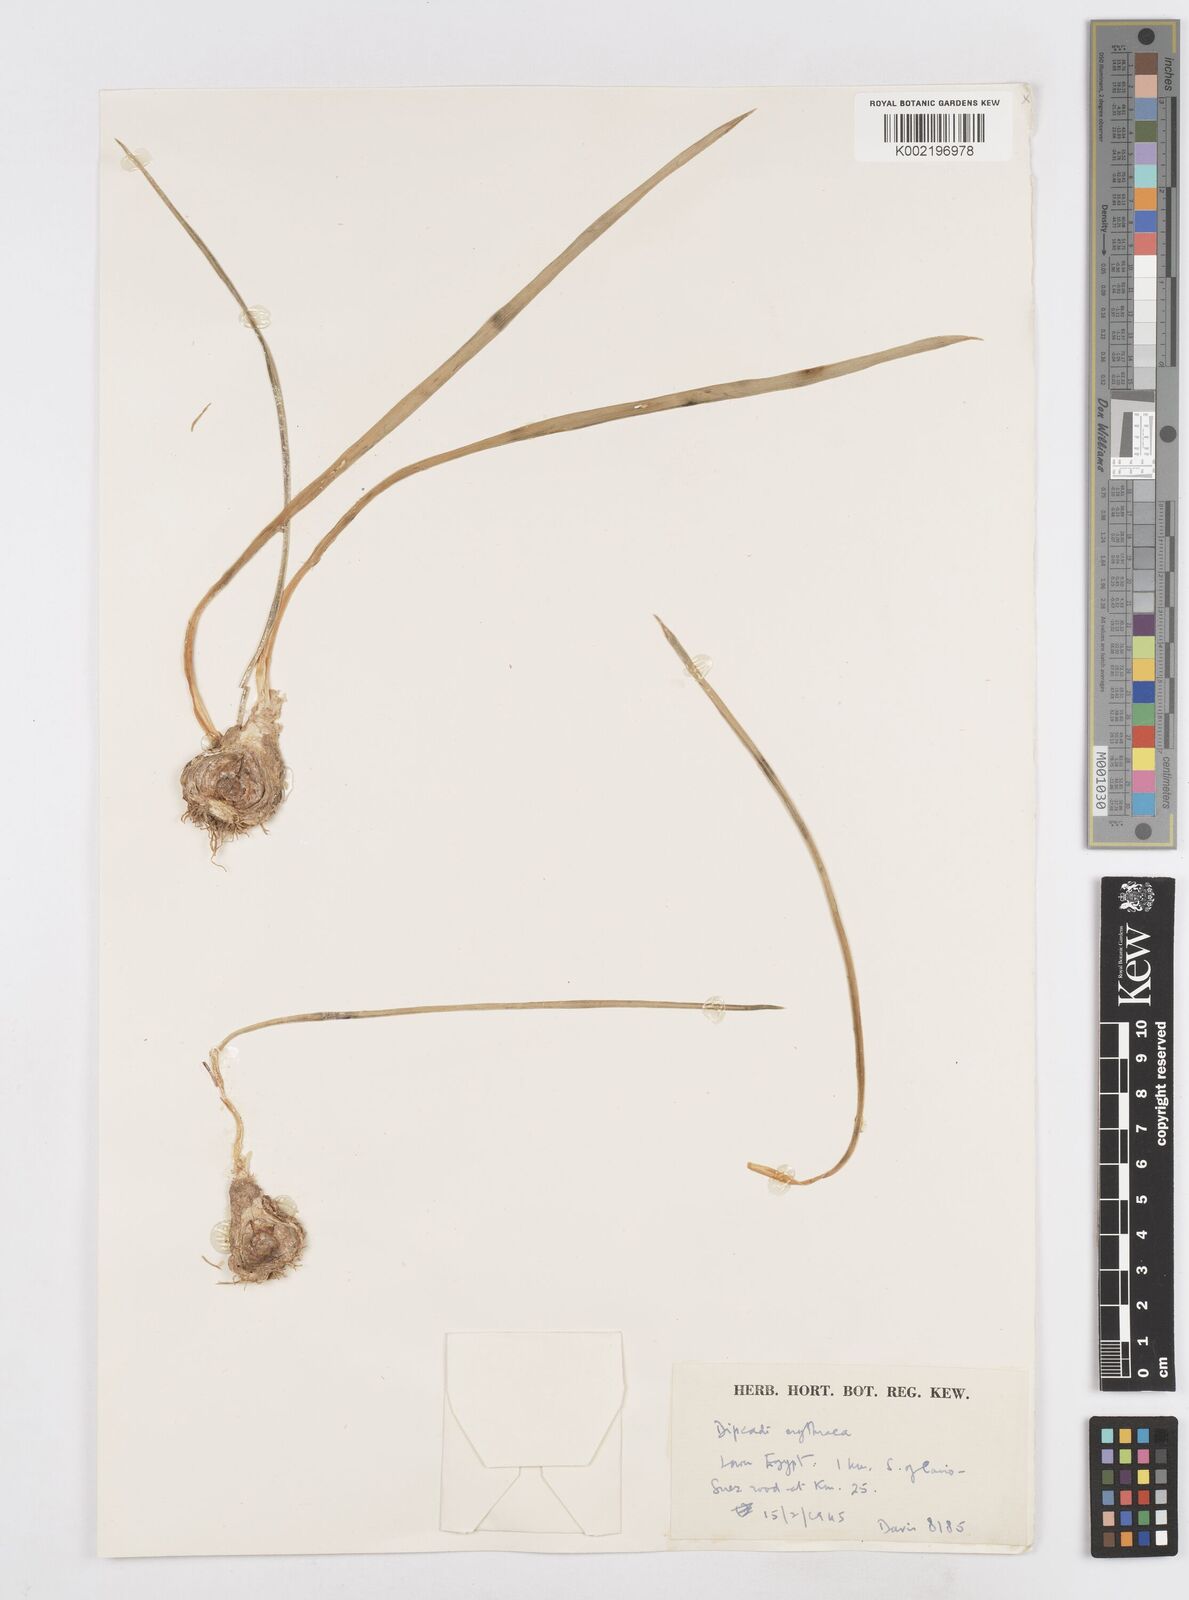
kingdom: Plantae
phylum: Tracheophyta
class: Liliopsida
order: Asparagales
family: Asparagaceae
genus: Dipcadi
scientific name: Dipcadi erythraeum
